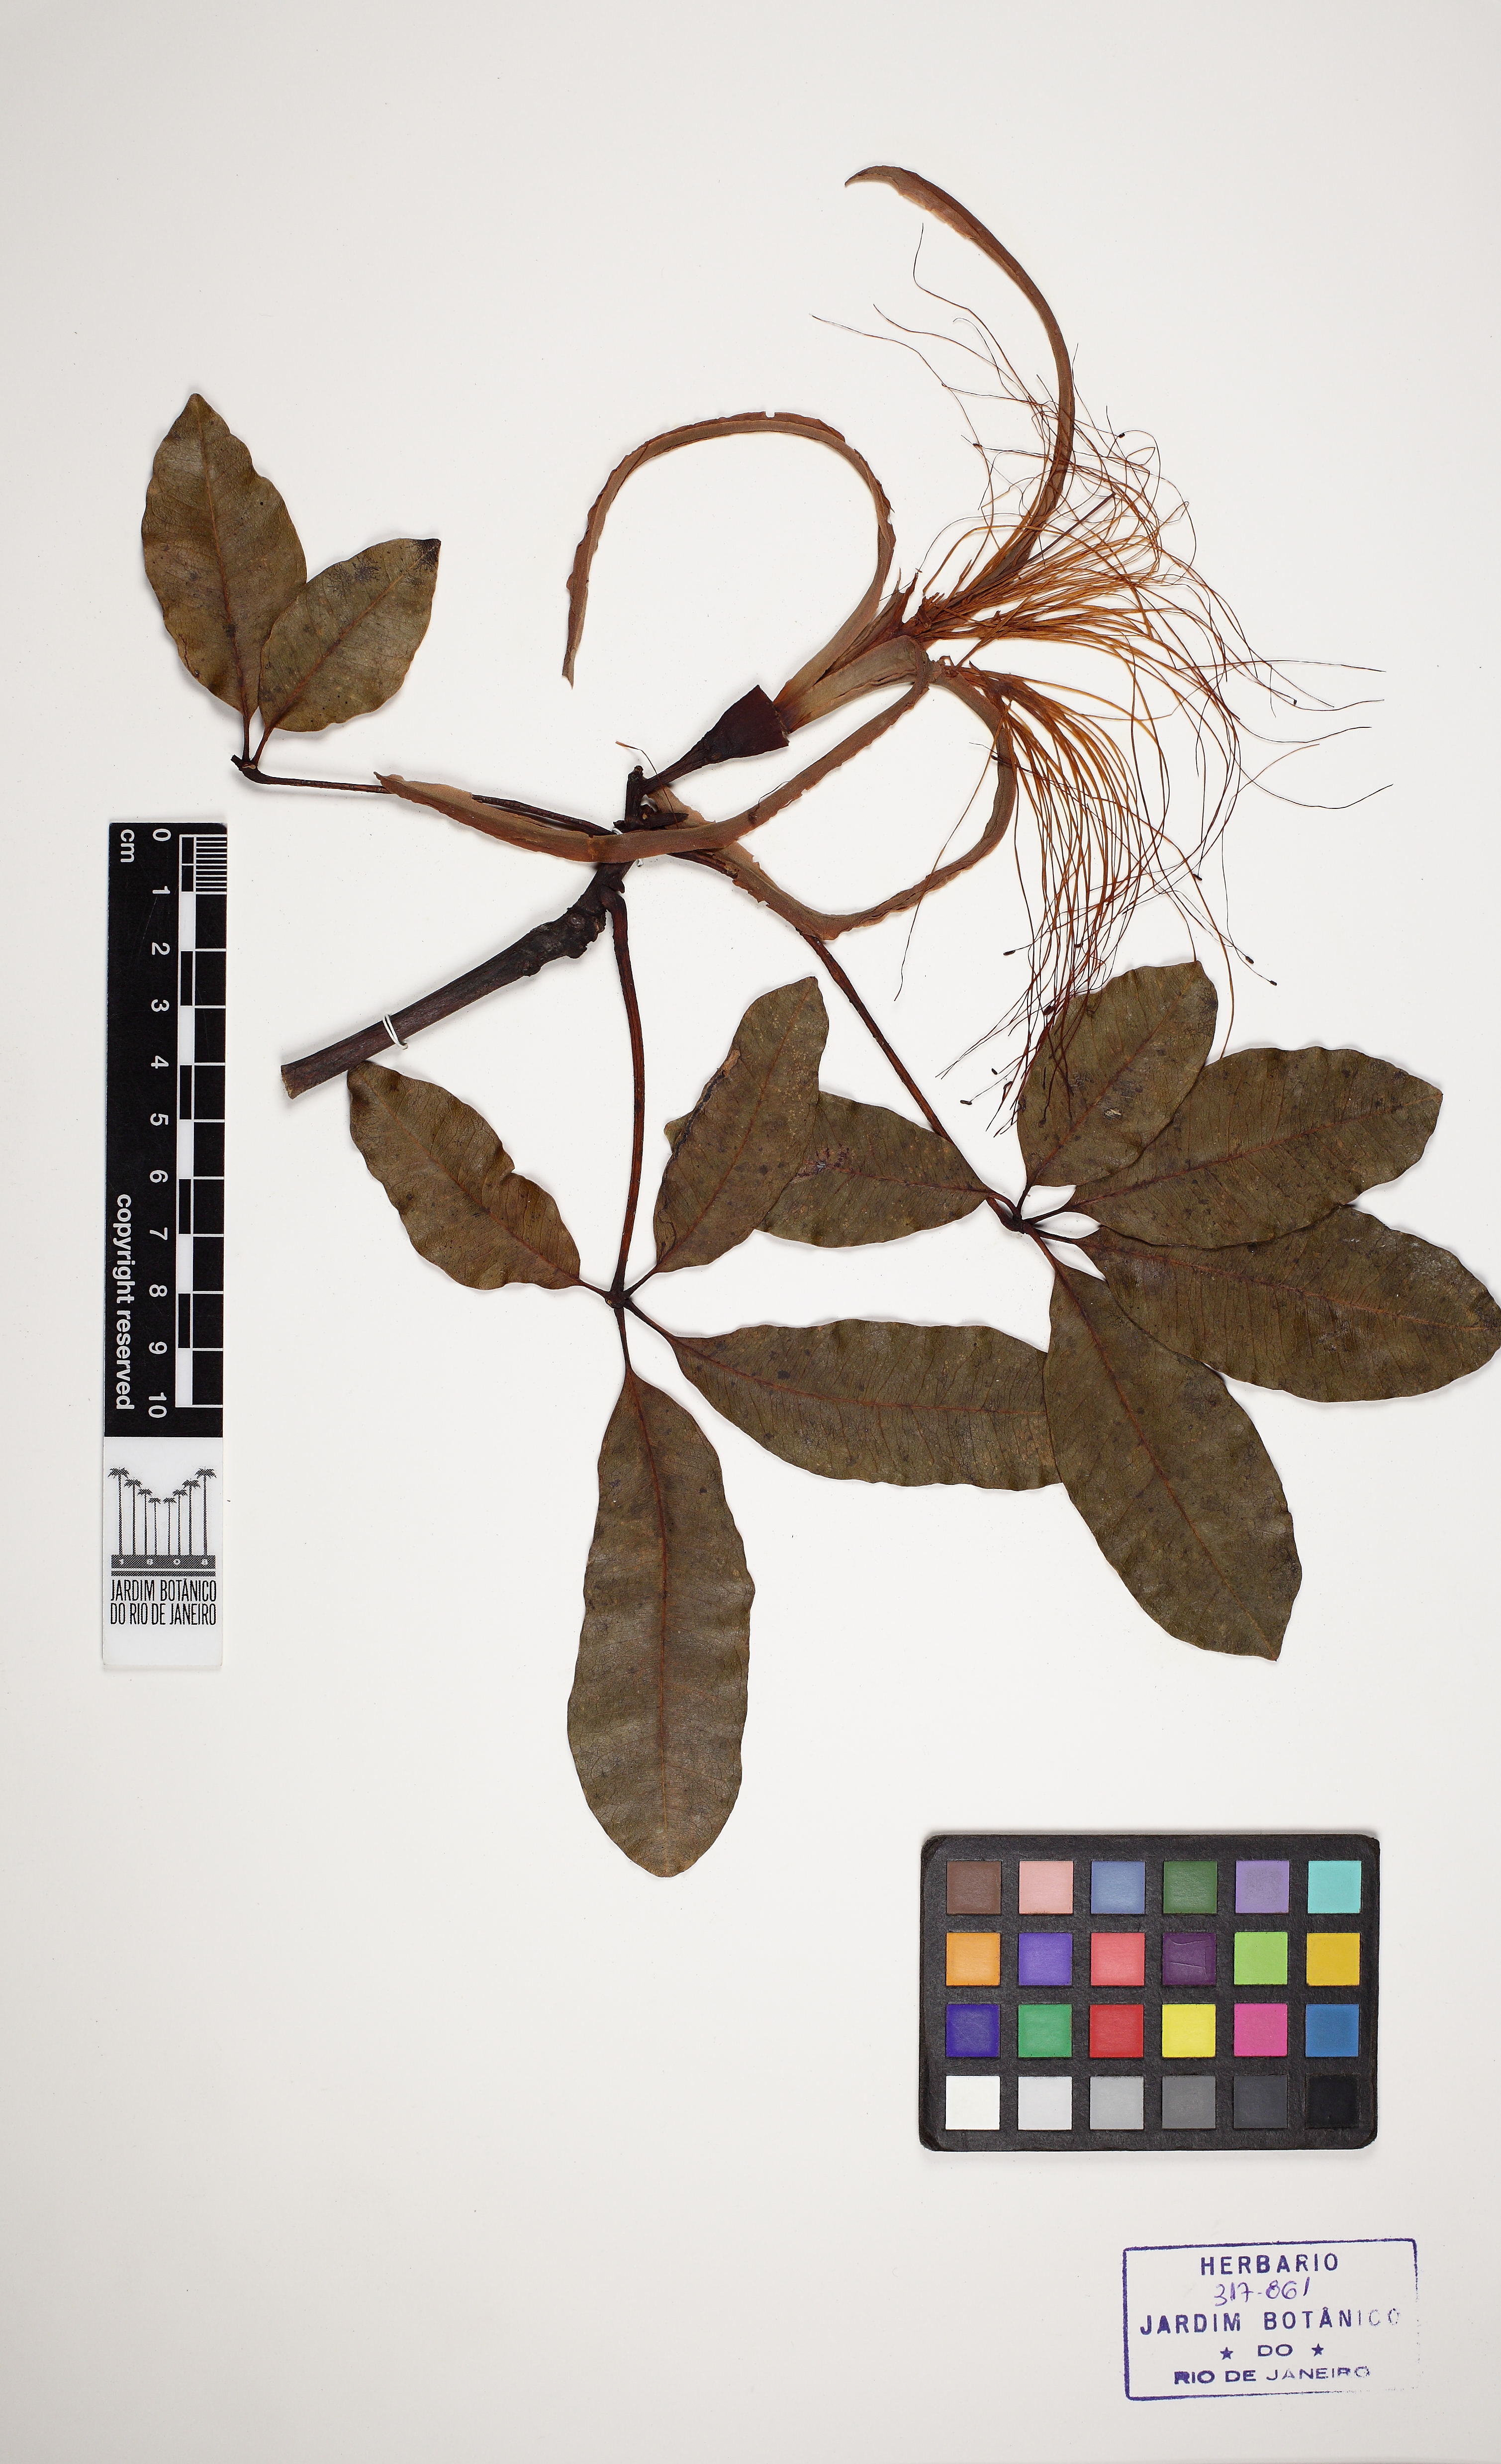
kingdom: Plantae
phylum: Tracheophyta
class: Magnoliopsida
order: Malvales
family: Malvaceae
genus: Pachira
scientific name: Pachira nitida
